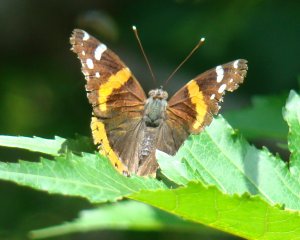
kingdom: Animalia
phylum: Arthropoda
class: Insecta
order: Lepidoptera
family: Nymphalidae
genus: Vanessa
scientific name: Vanessa atalanta
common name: Red Admiral
